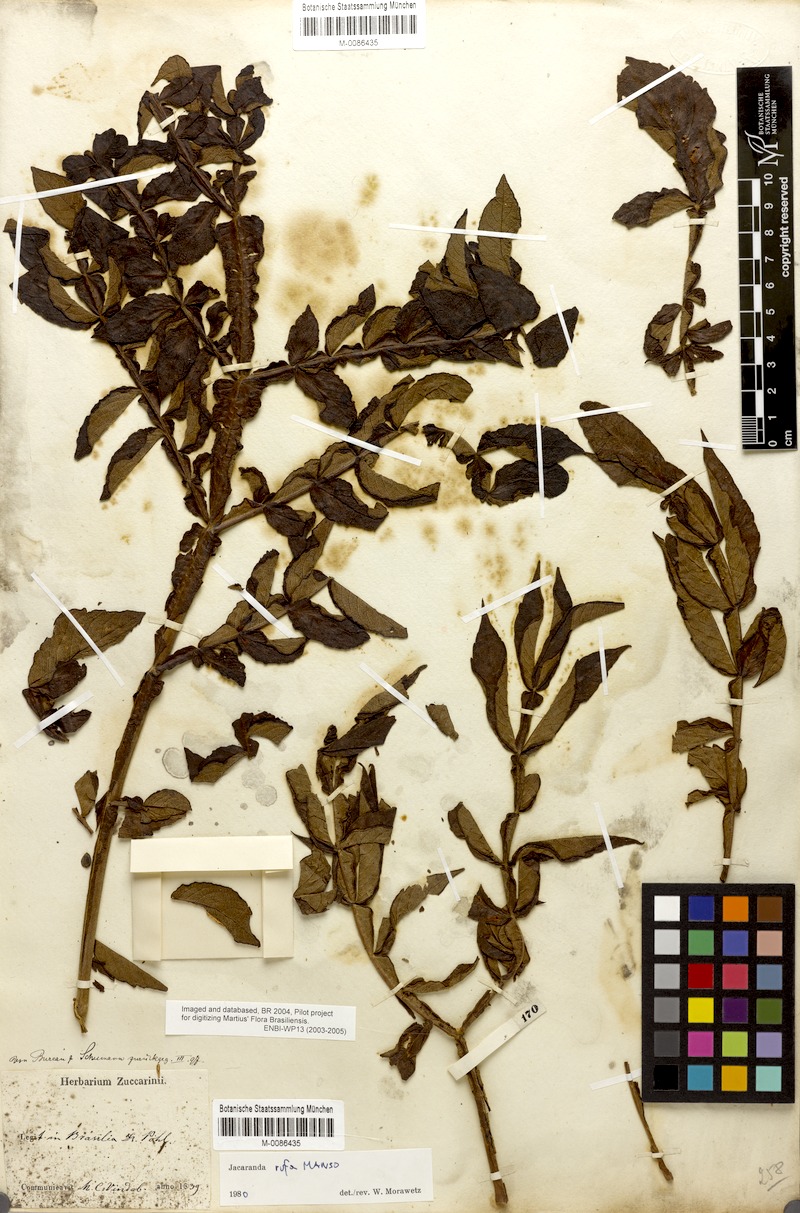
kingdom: Plantae
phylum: Tracheophyta
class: Magnoliopsida
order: Lamiales
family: Bignoniaceae
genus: Jacaranda
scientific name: Jacaranda rufa
